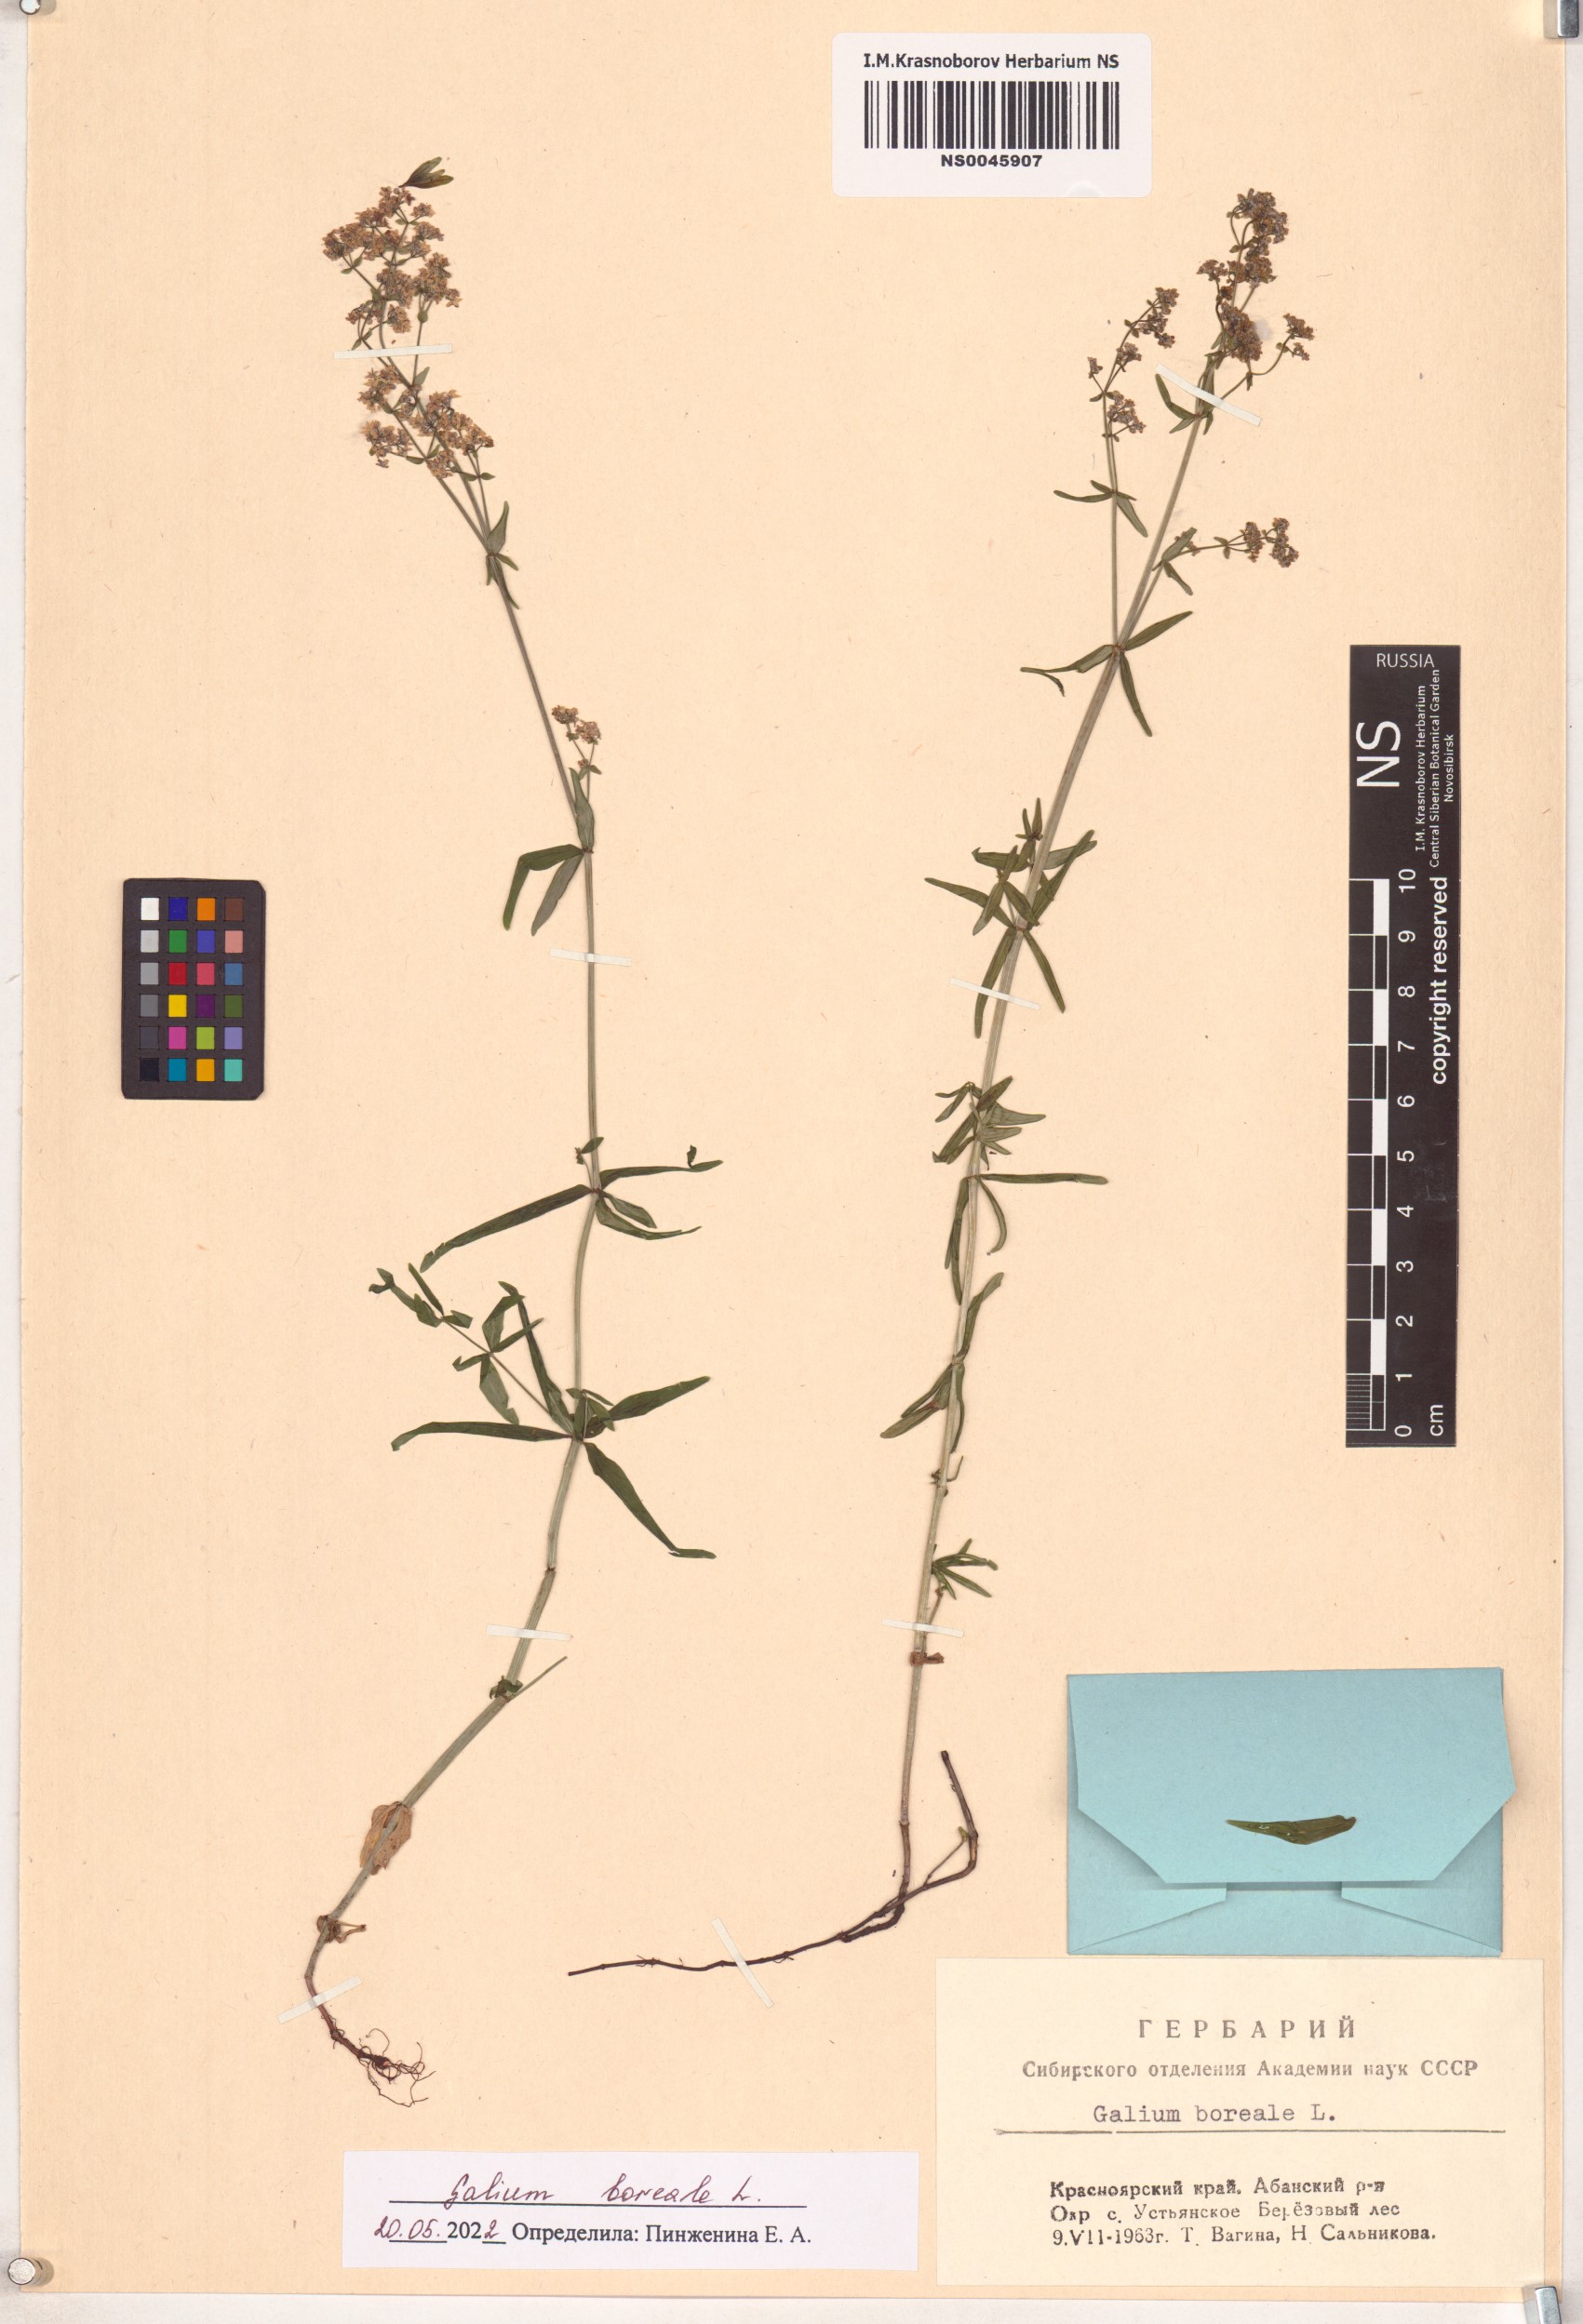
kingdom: Plantae
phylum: Tracheophyta
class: Magnoliopsida
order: Gentianales
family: Rubiaceae
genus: Galium
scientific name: Galium boreale
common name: Northern bedstraw
